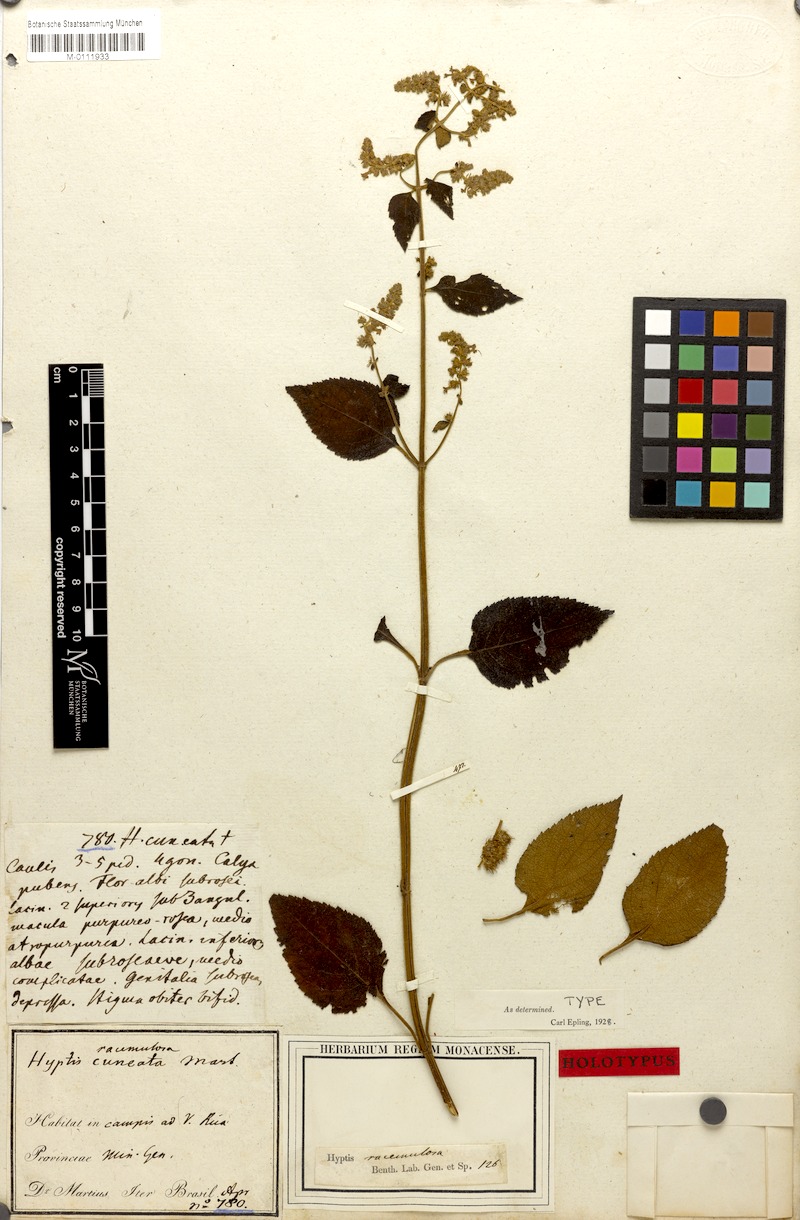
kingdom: Plantae
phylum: Tracheophyta
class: Magnoliopsida
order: Lamiales
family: Lamiaceae
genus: Cantinoa
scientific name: Cantinoa racemulosa
